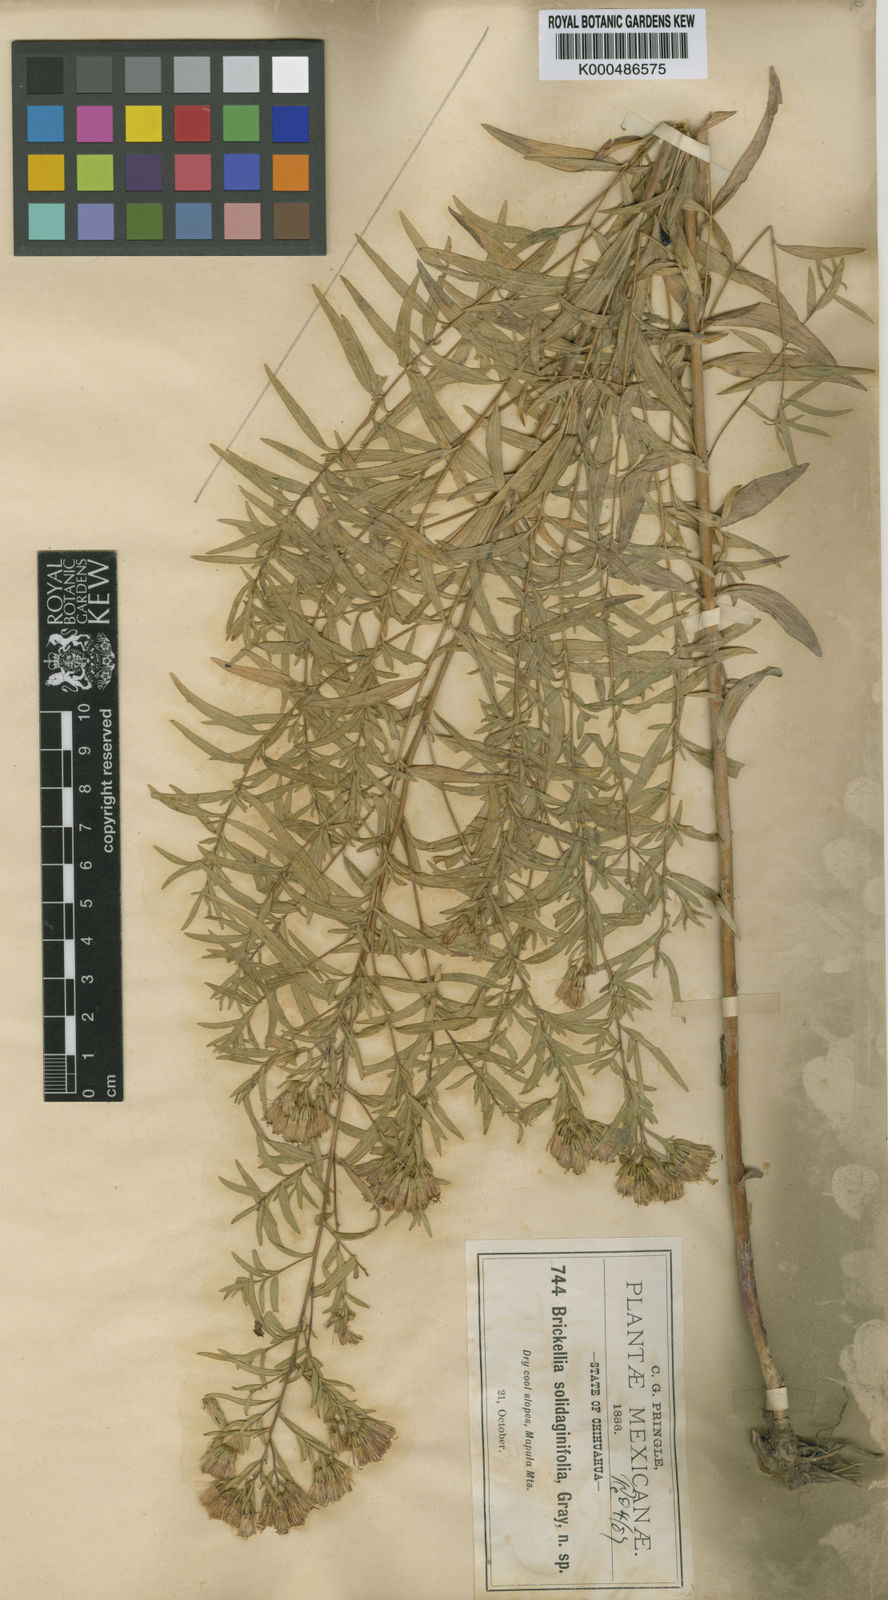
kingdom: Plantae
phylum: Tracheophyta
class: Magnoliopsida
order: Asterales
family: Asteraceae
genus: Asanthus
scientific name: Asanthus solidaginifolius
